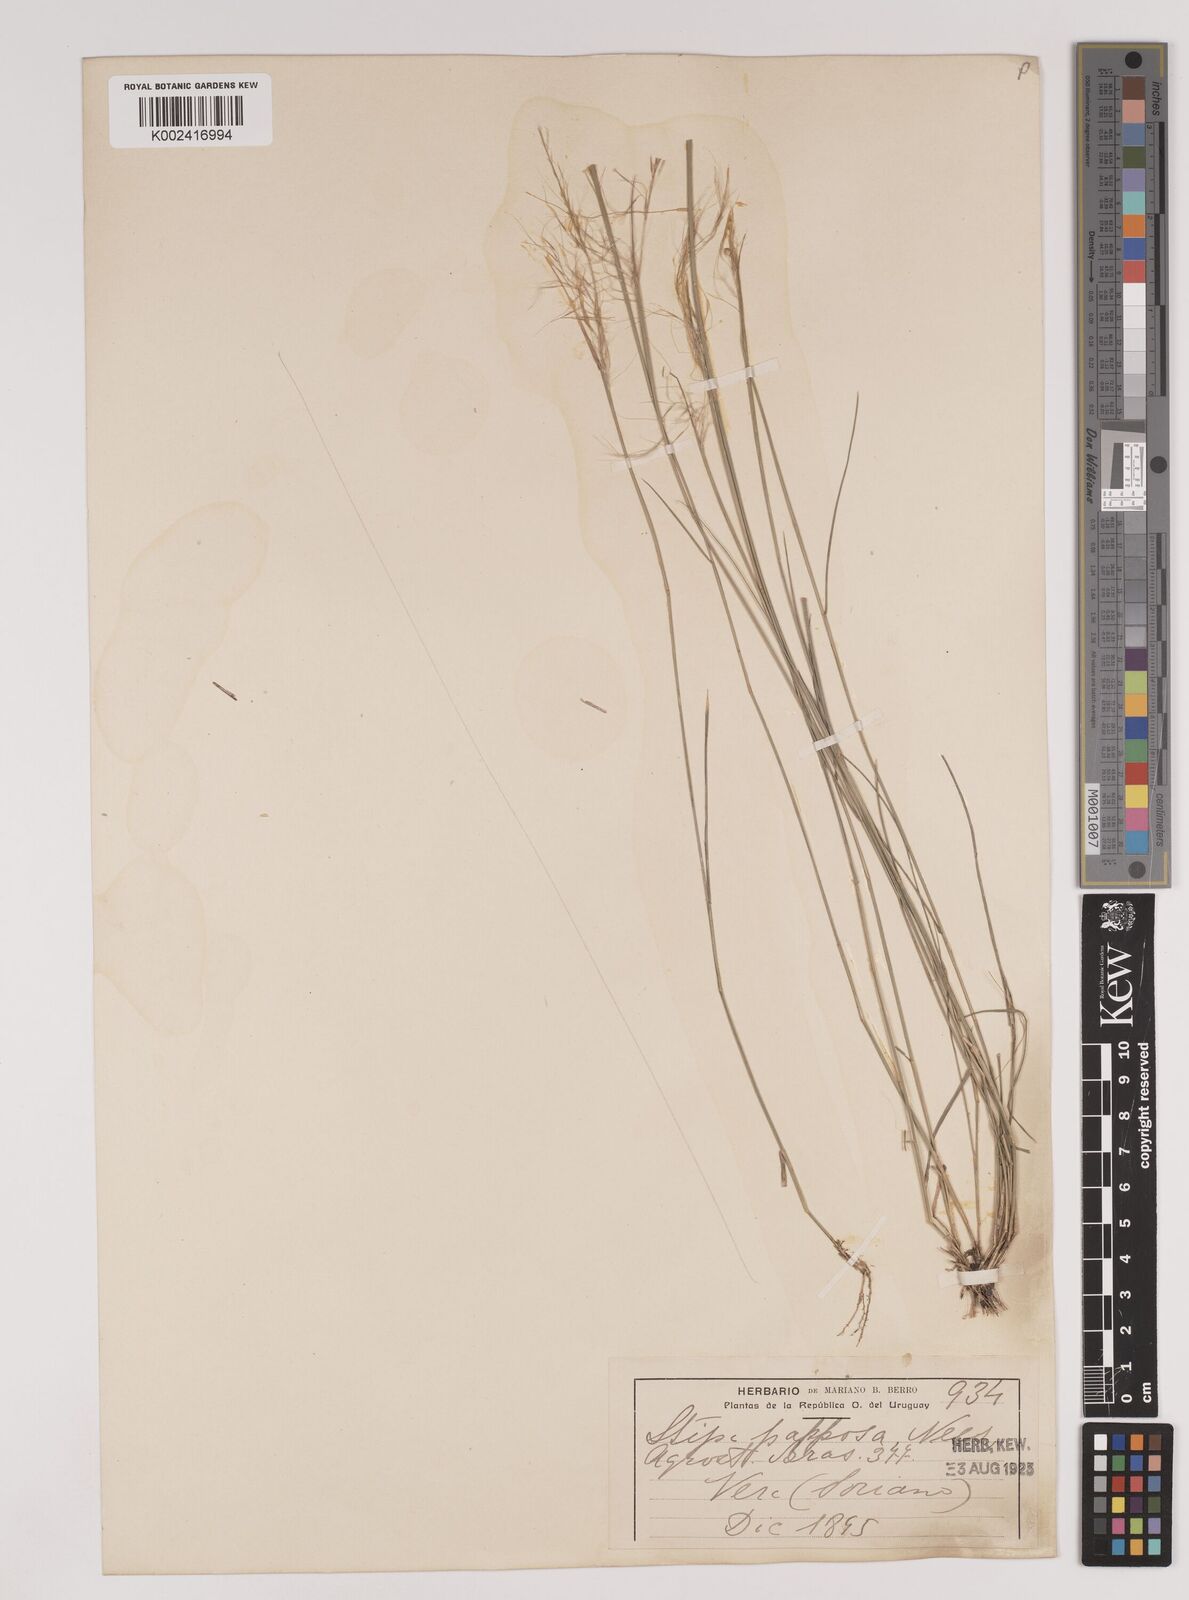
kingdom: Plantae
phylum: Tracheophyta
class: Liliopsida
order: Poales
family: Poaceae
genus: Jarava
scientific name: Jarava plumosa
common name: South american rice grass
